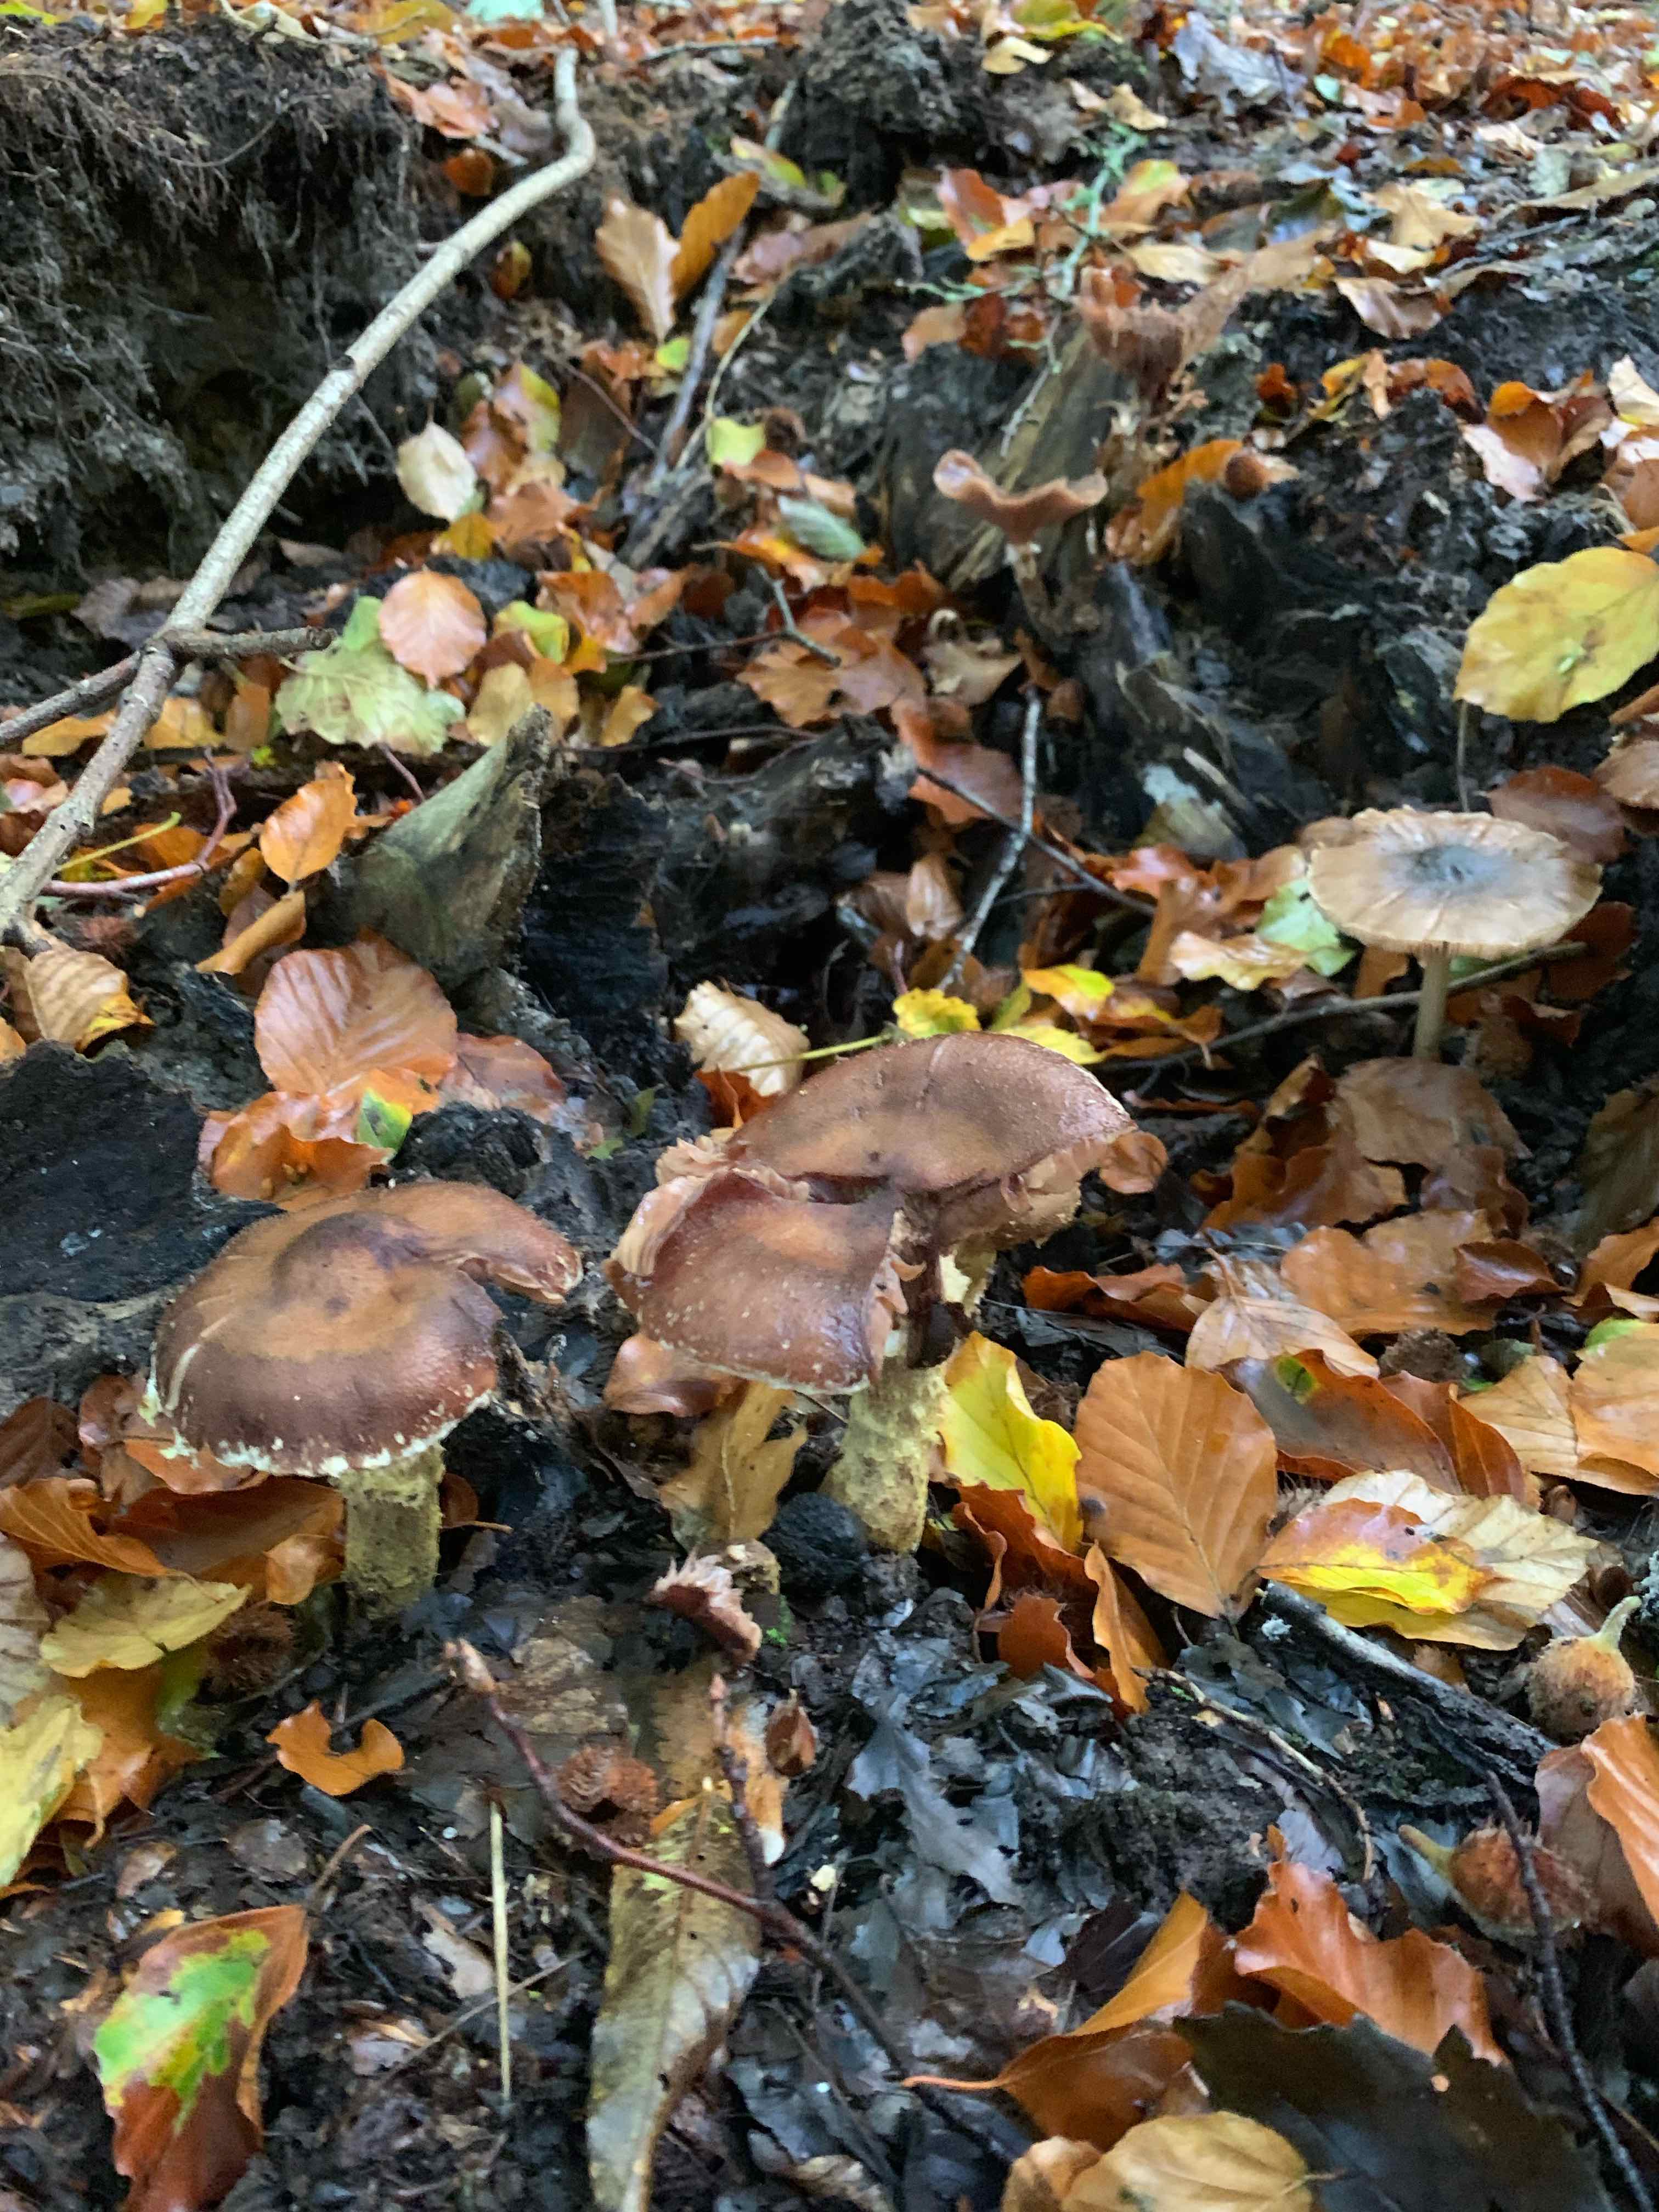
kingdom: Fungi
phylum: Basidiomycota
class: Agaricomycetes
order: Agaricales
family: Physalacriaceae
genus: Armillaria
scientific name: Armillaria lutea
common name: køllestokket honningsvamp
